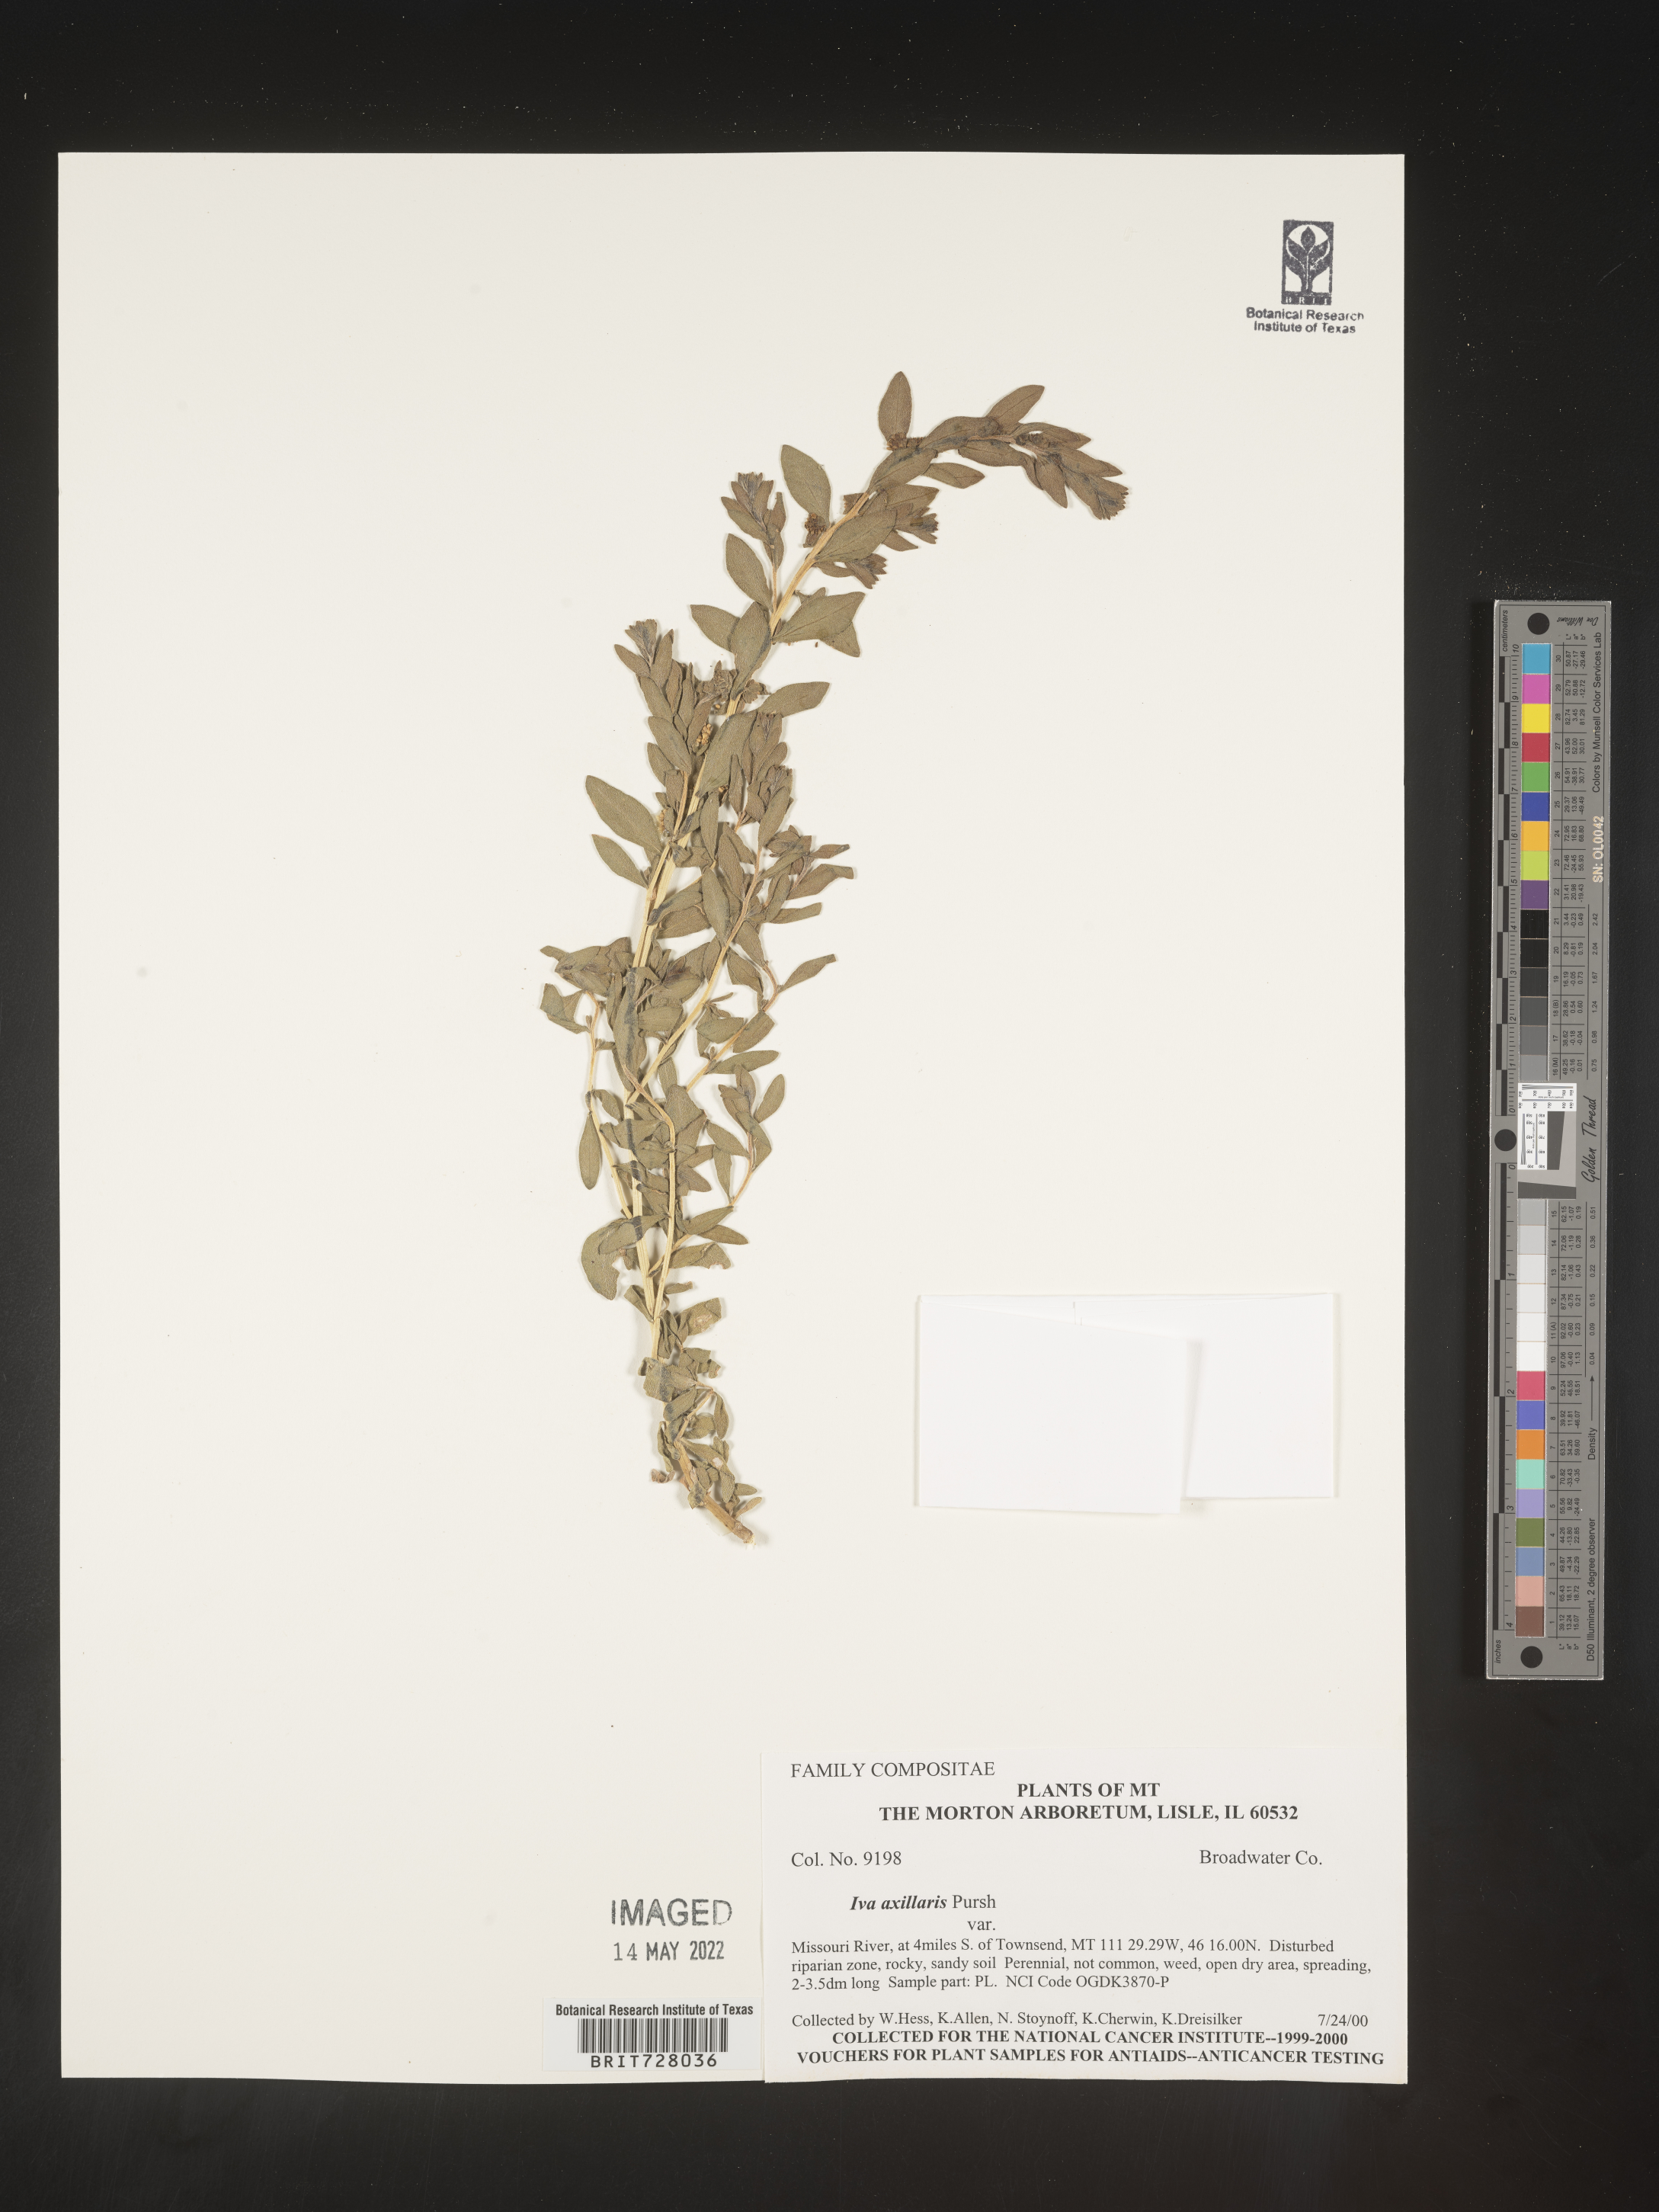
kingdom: Plantae
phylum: Tracheophyta
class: Magnoliopsida
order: Asterales
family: Asteraceae
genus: Iva
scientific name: Iva axillaris
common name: Poverty sumpweed
